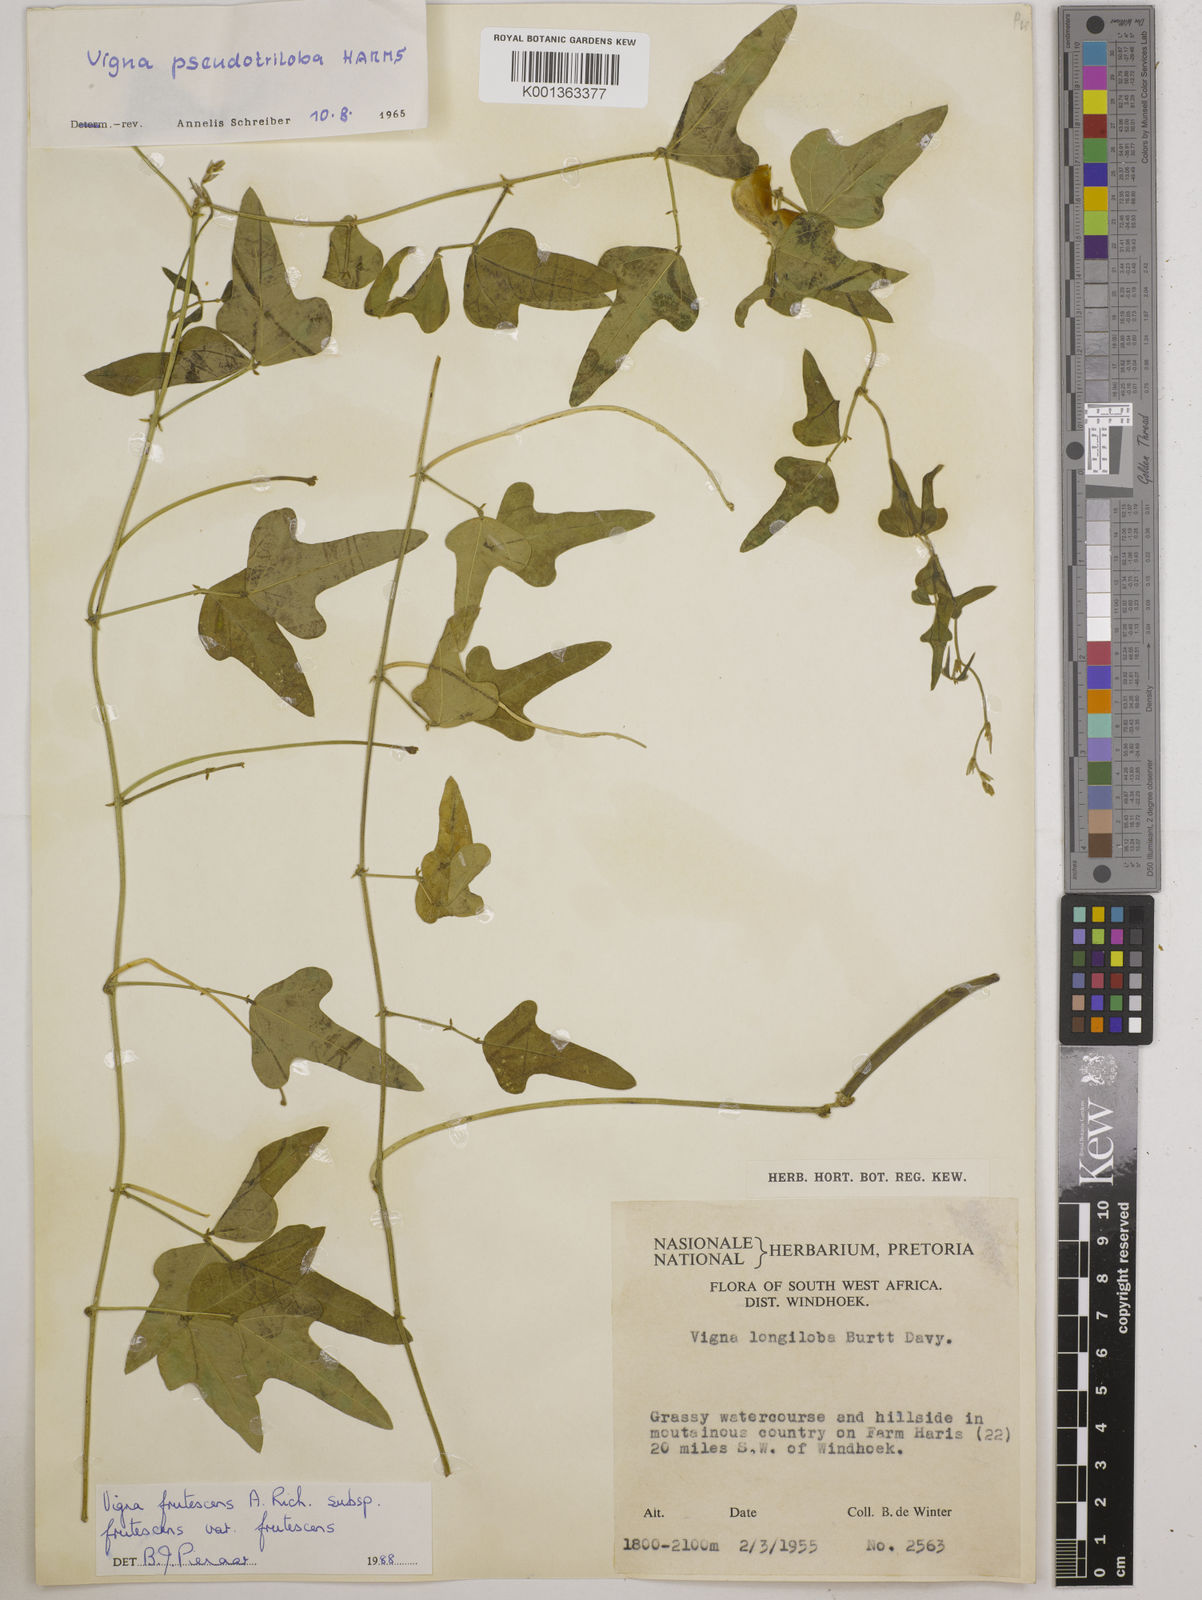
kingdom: Plantae
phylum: Tracheophyta
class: Magnoliopsida
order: Fabales
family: Fabaceae
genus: Vigna
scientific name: Vigna frutescens
